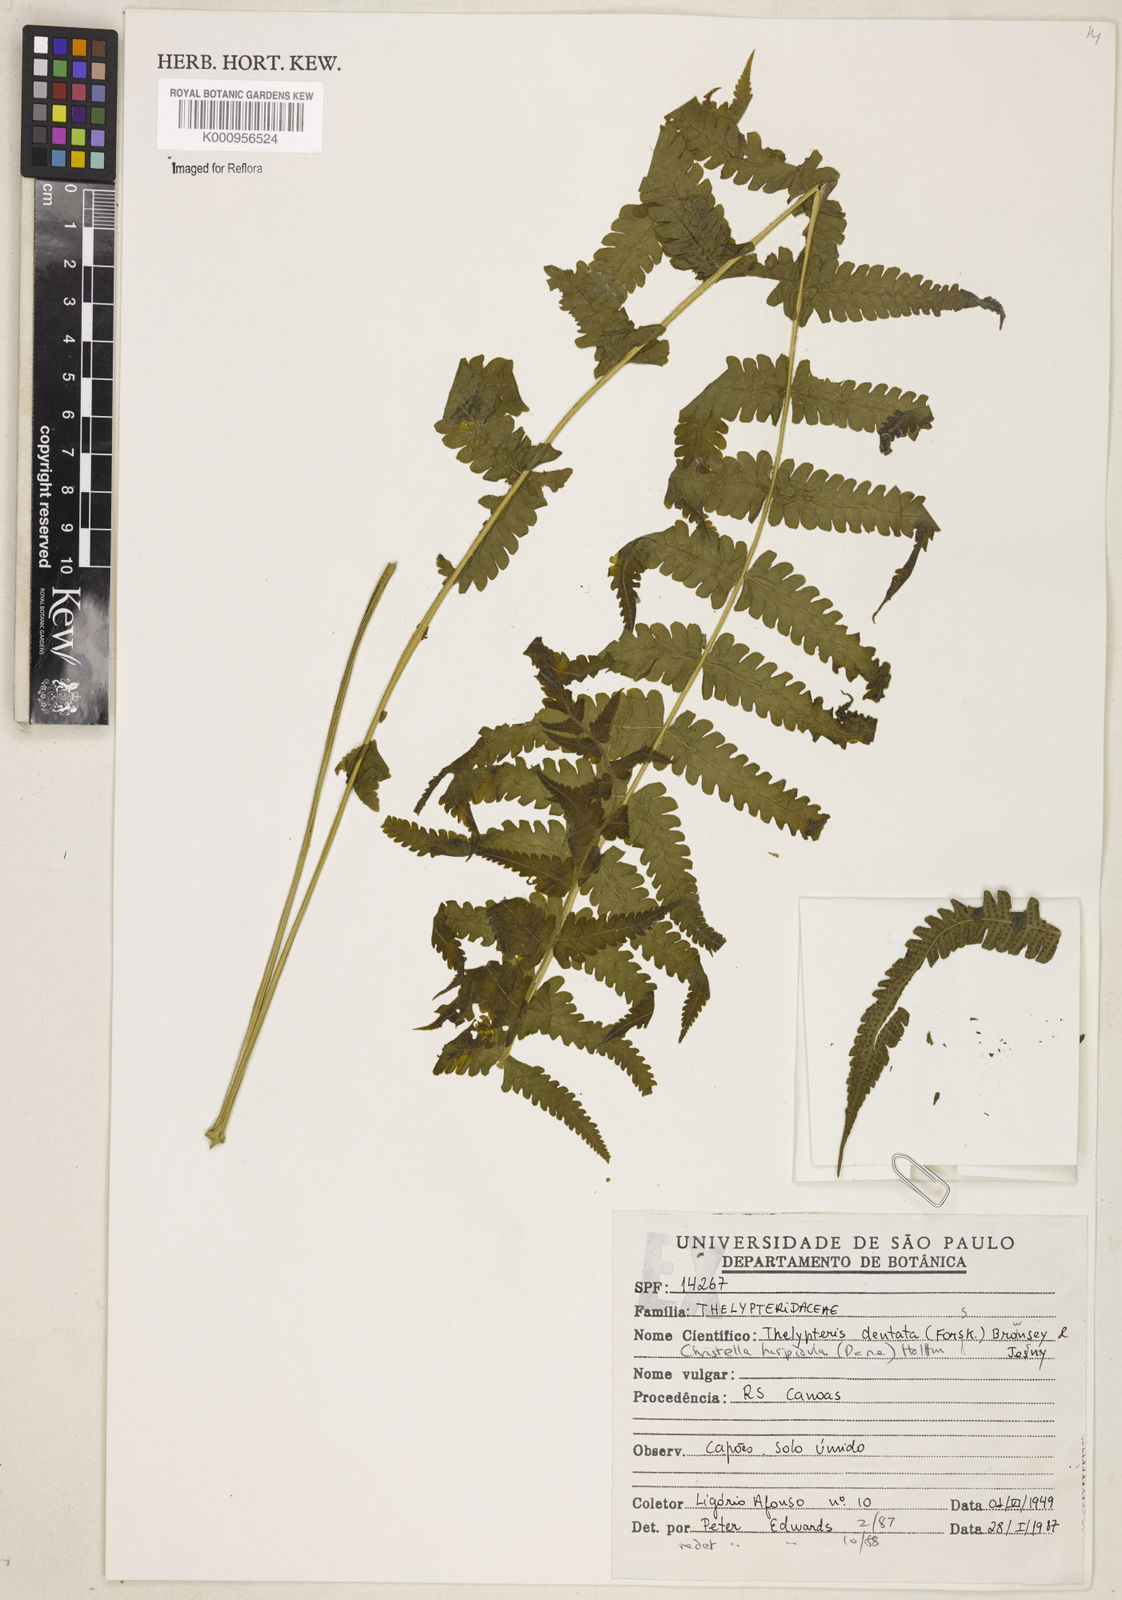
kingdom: Plantae
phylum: Tracheophyta
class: Polypodiopsida
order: Polypodiales
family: Thelypteridaceae
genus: Christella
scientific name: Christella dentata
